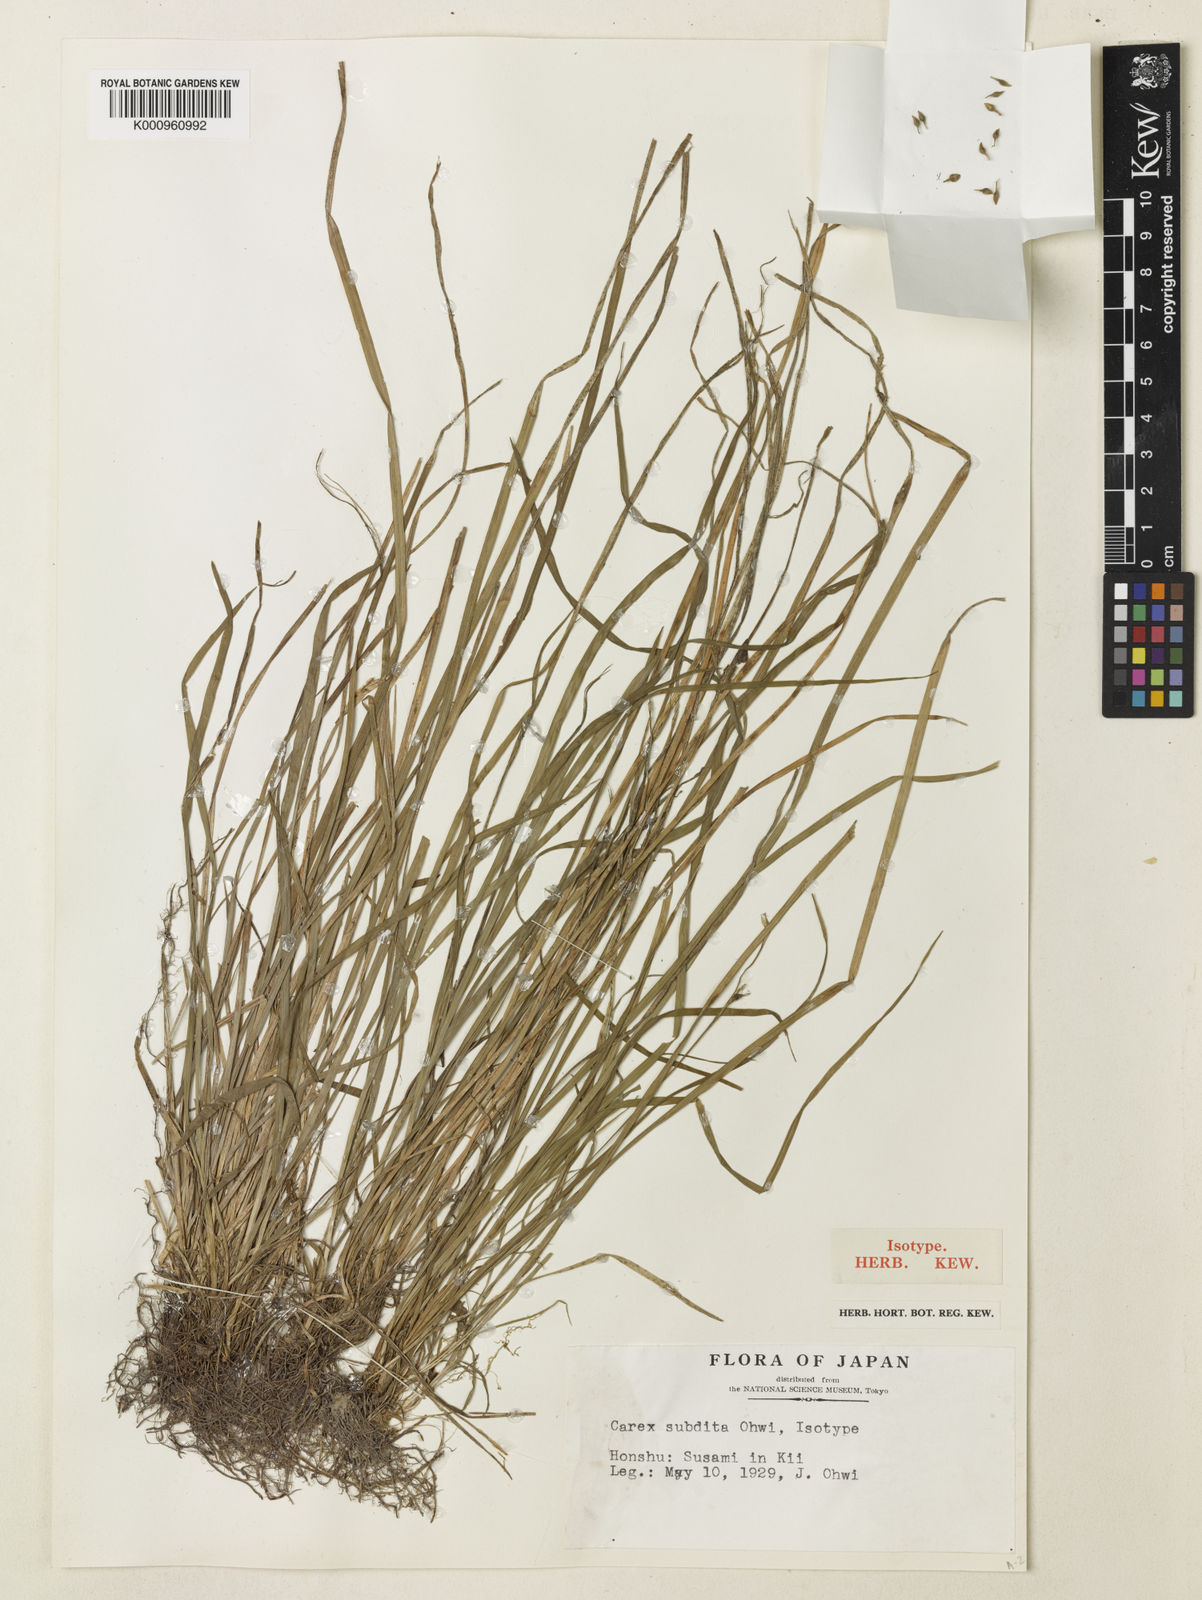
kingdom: Plantae
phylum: Tracheophyta
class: Liliopsida
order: Poales
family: Cyperaceae
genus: Carex
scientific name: Carex insaniae
